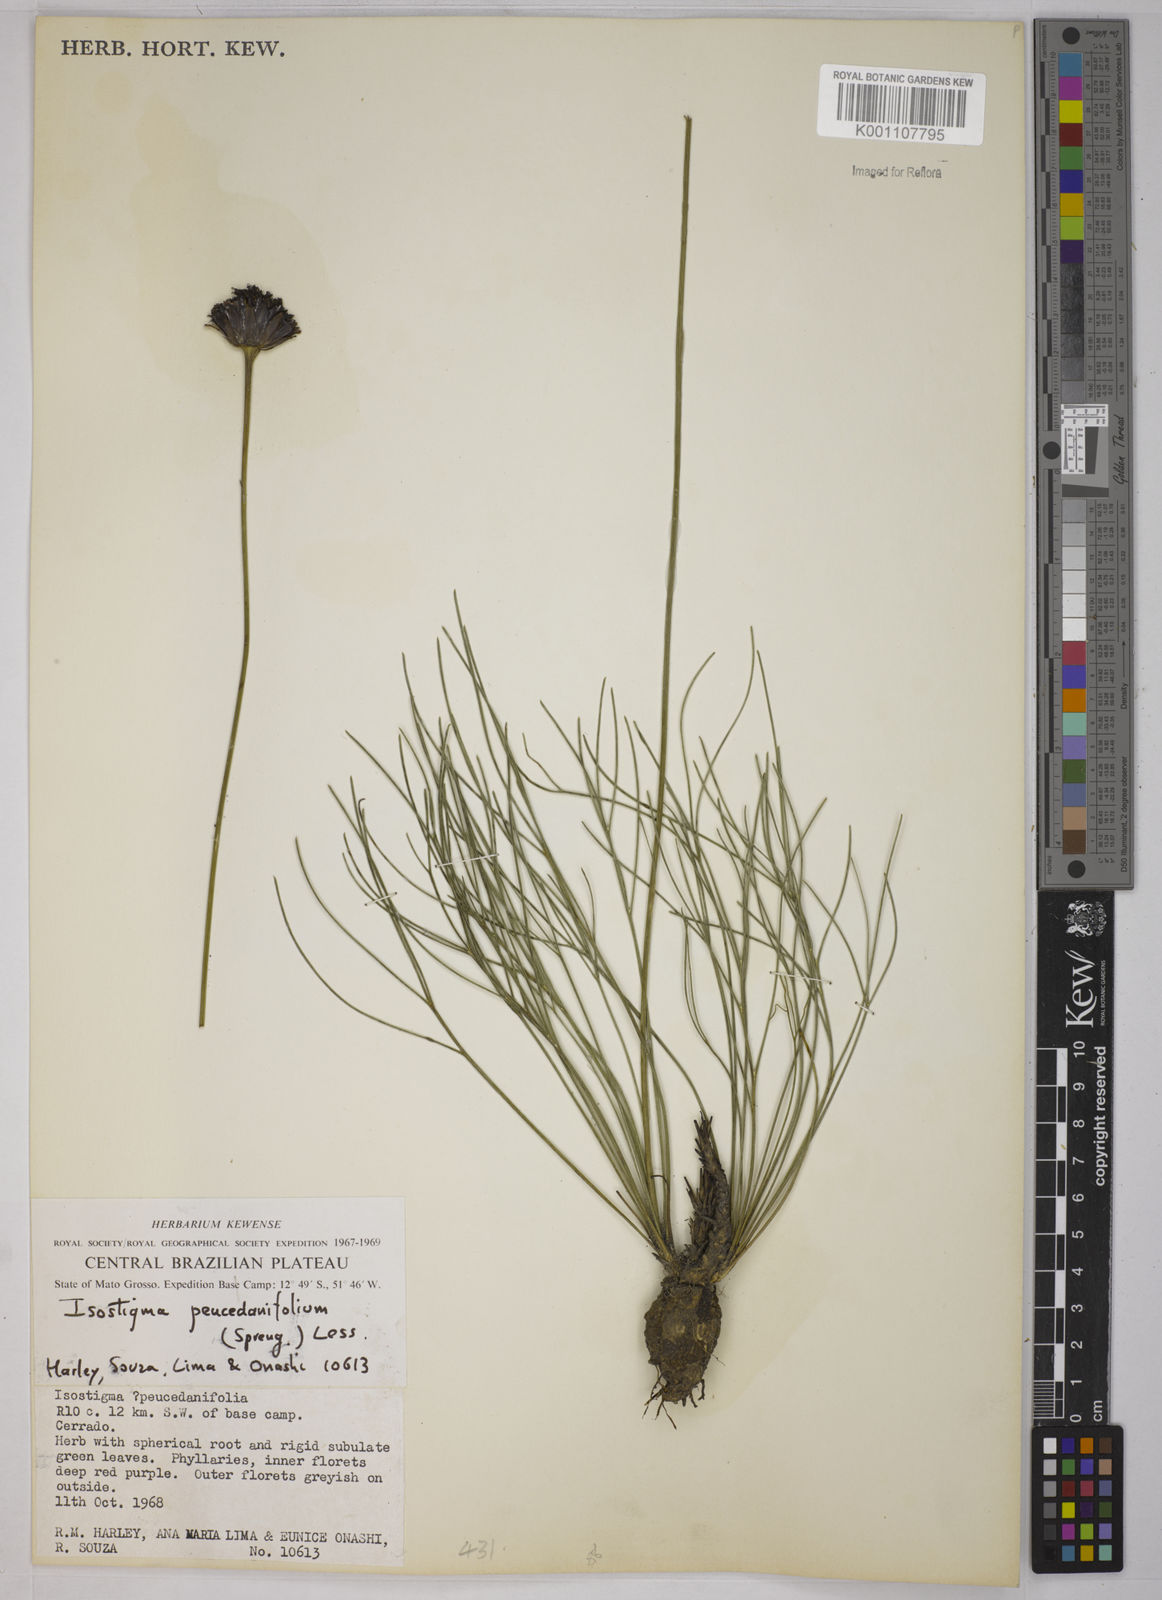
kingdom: Plantae
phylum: Tracheophyta
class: Magnoliopsida
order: Asterales
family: Asteraceae
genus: Isostigma
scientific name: Isostigma
